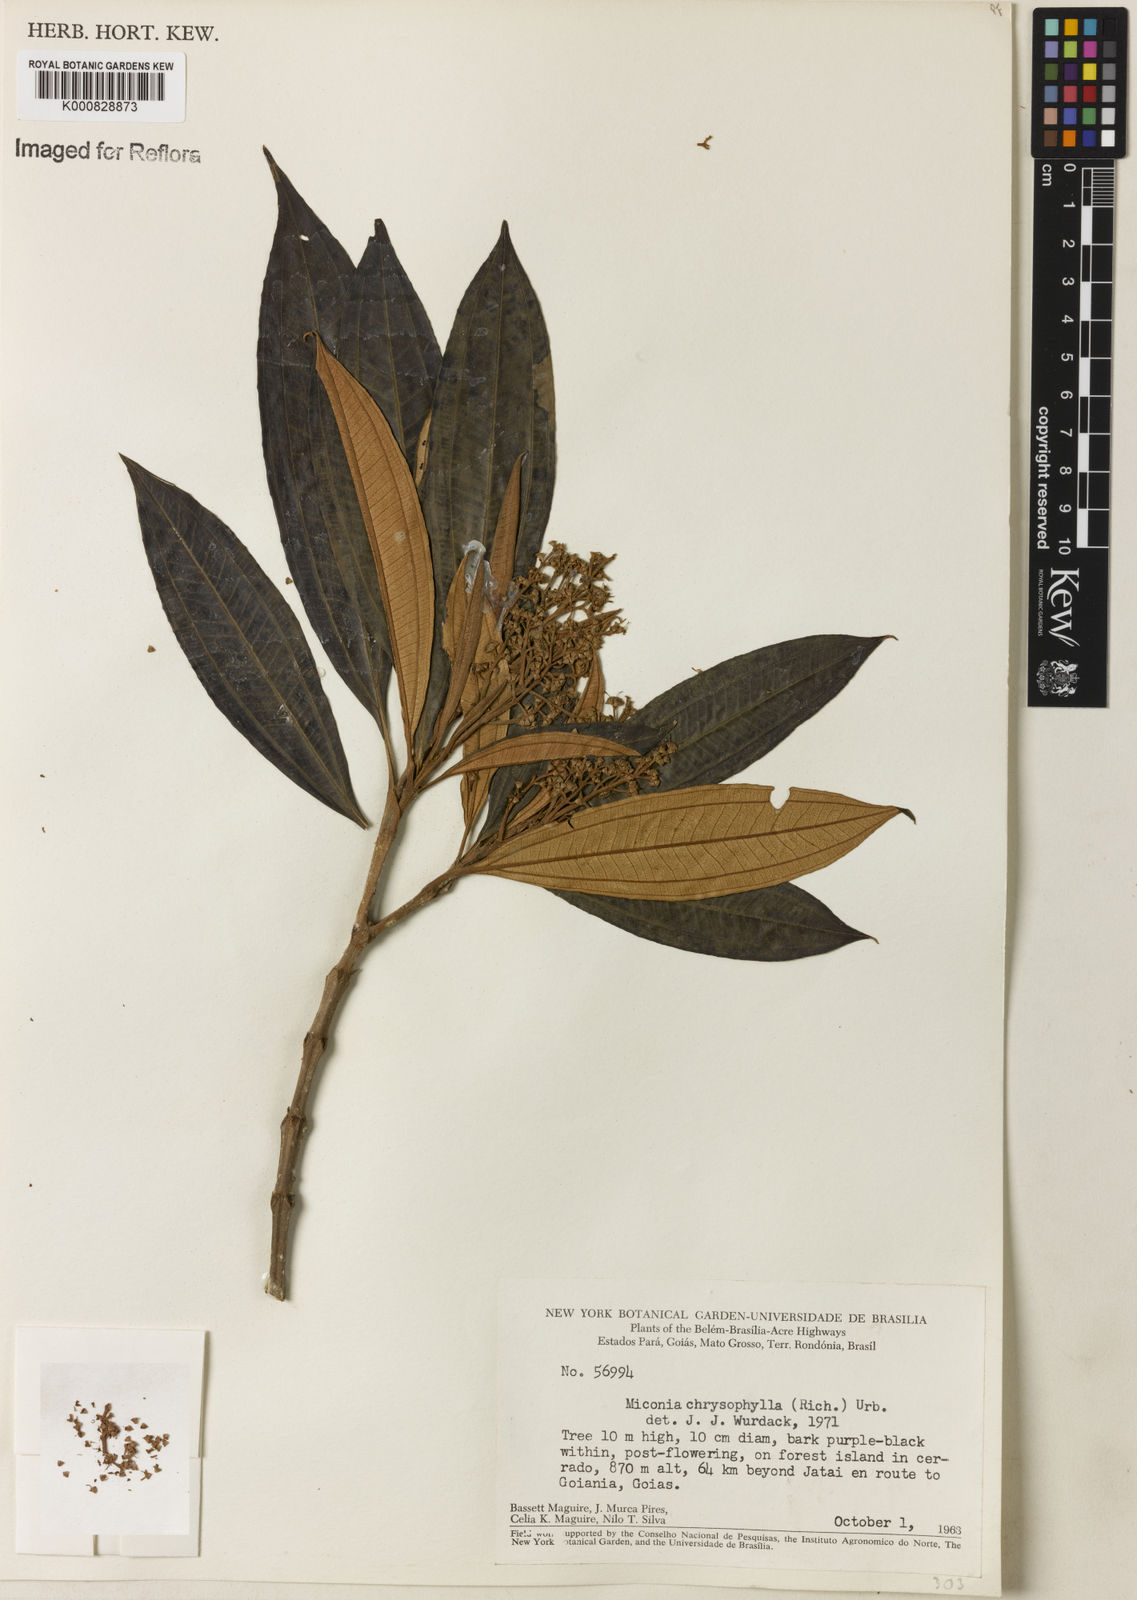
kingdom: Plantae
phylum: Tracheophyta
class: Magnoliopsida
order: Myrtales
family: Melastomataceae
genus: Miconia
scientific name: Miconia chrysophylla
